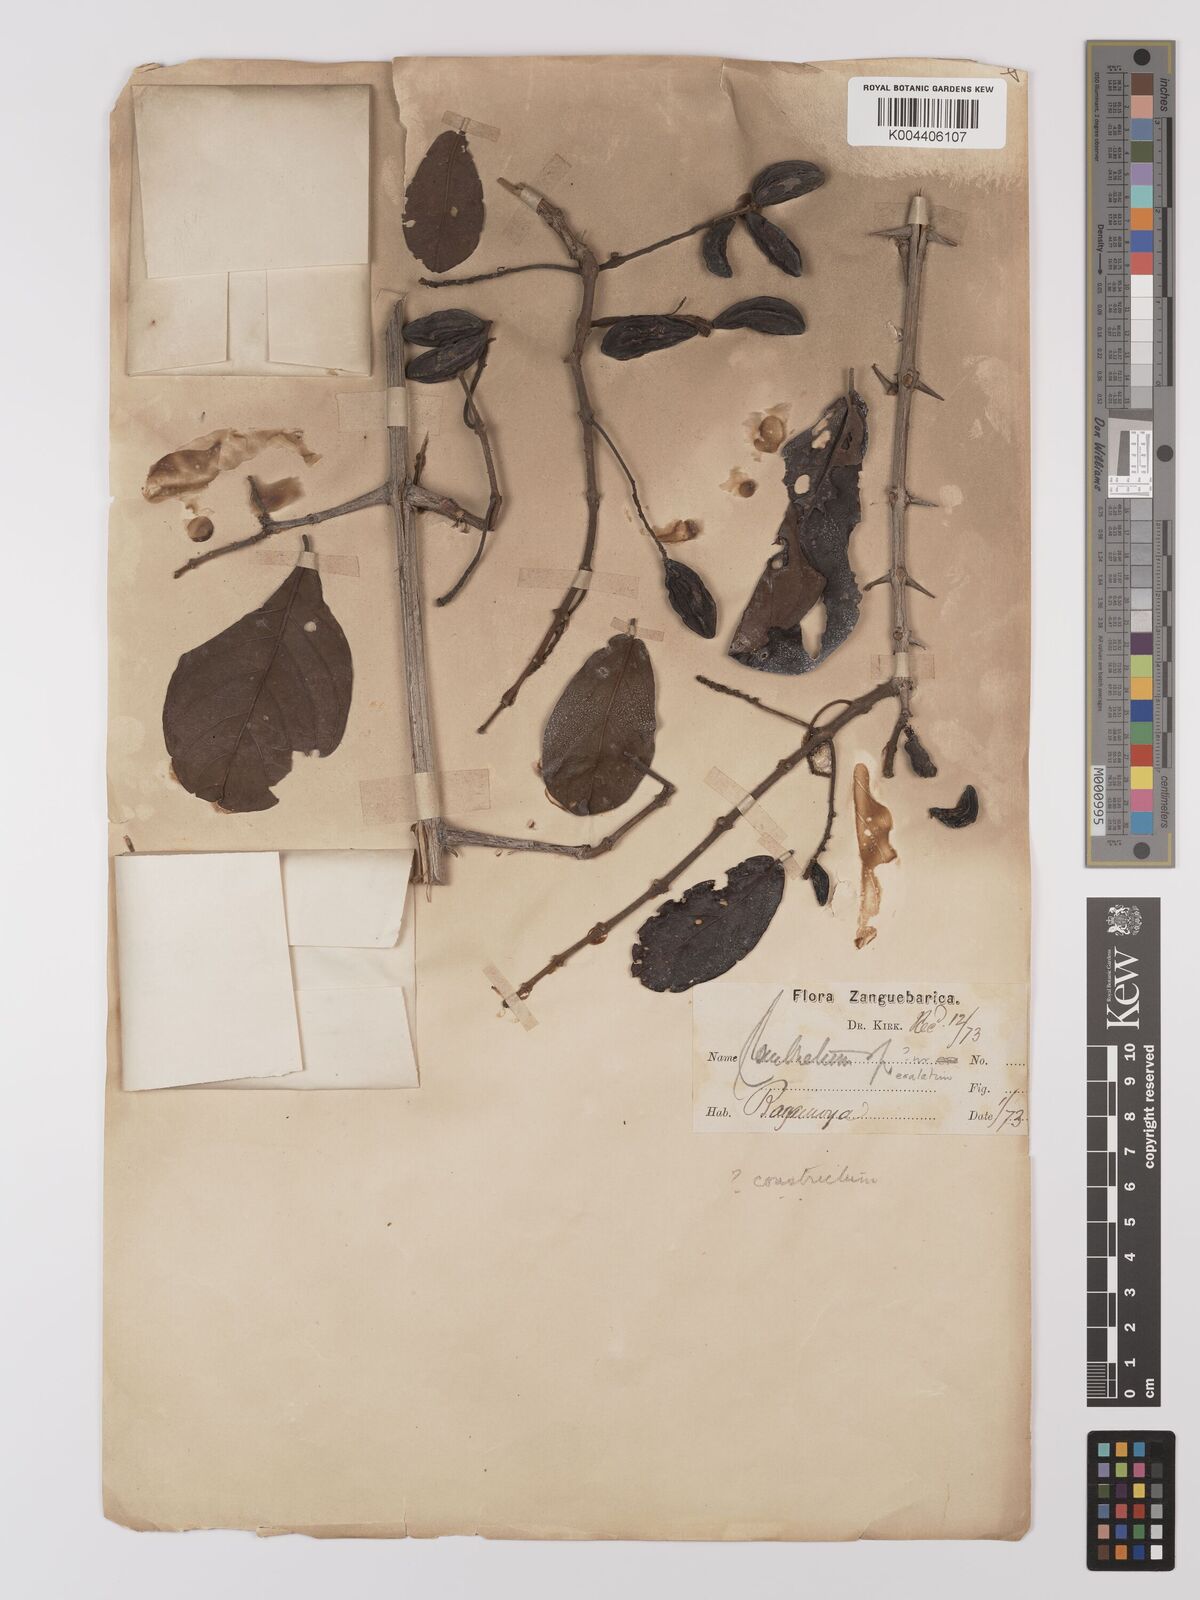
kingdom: Plantae
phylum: Tracheophyta
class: Magnoliopsida
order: Myrtales
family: Combretaceae
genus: Combretum
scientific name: Combretum constrictum
